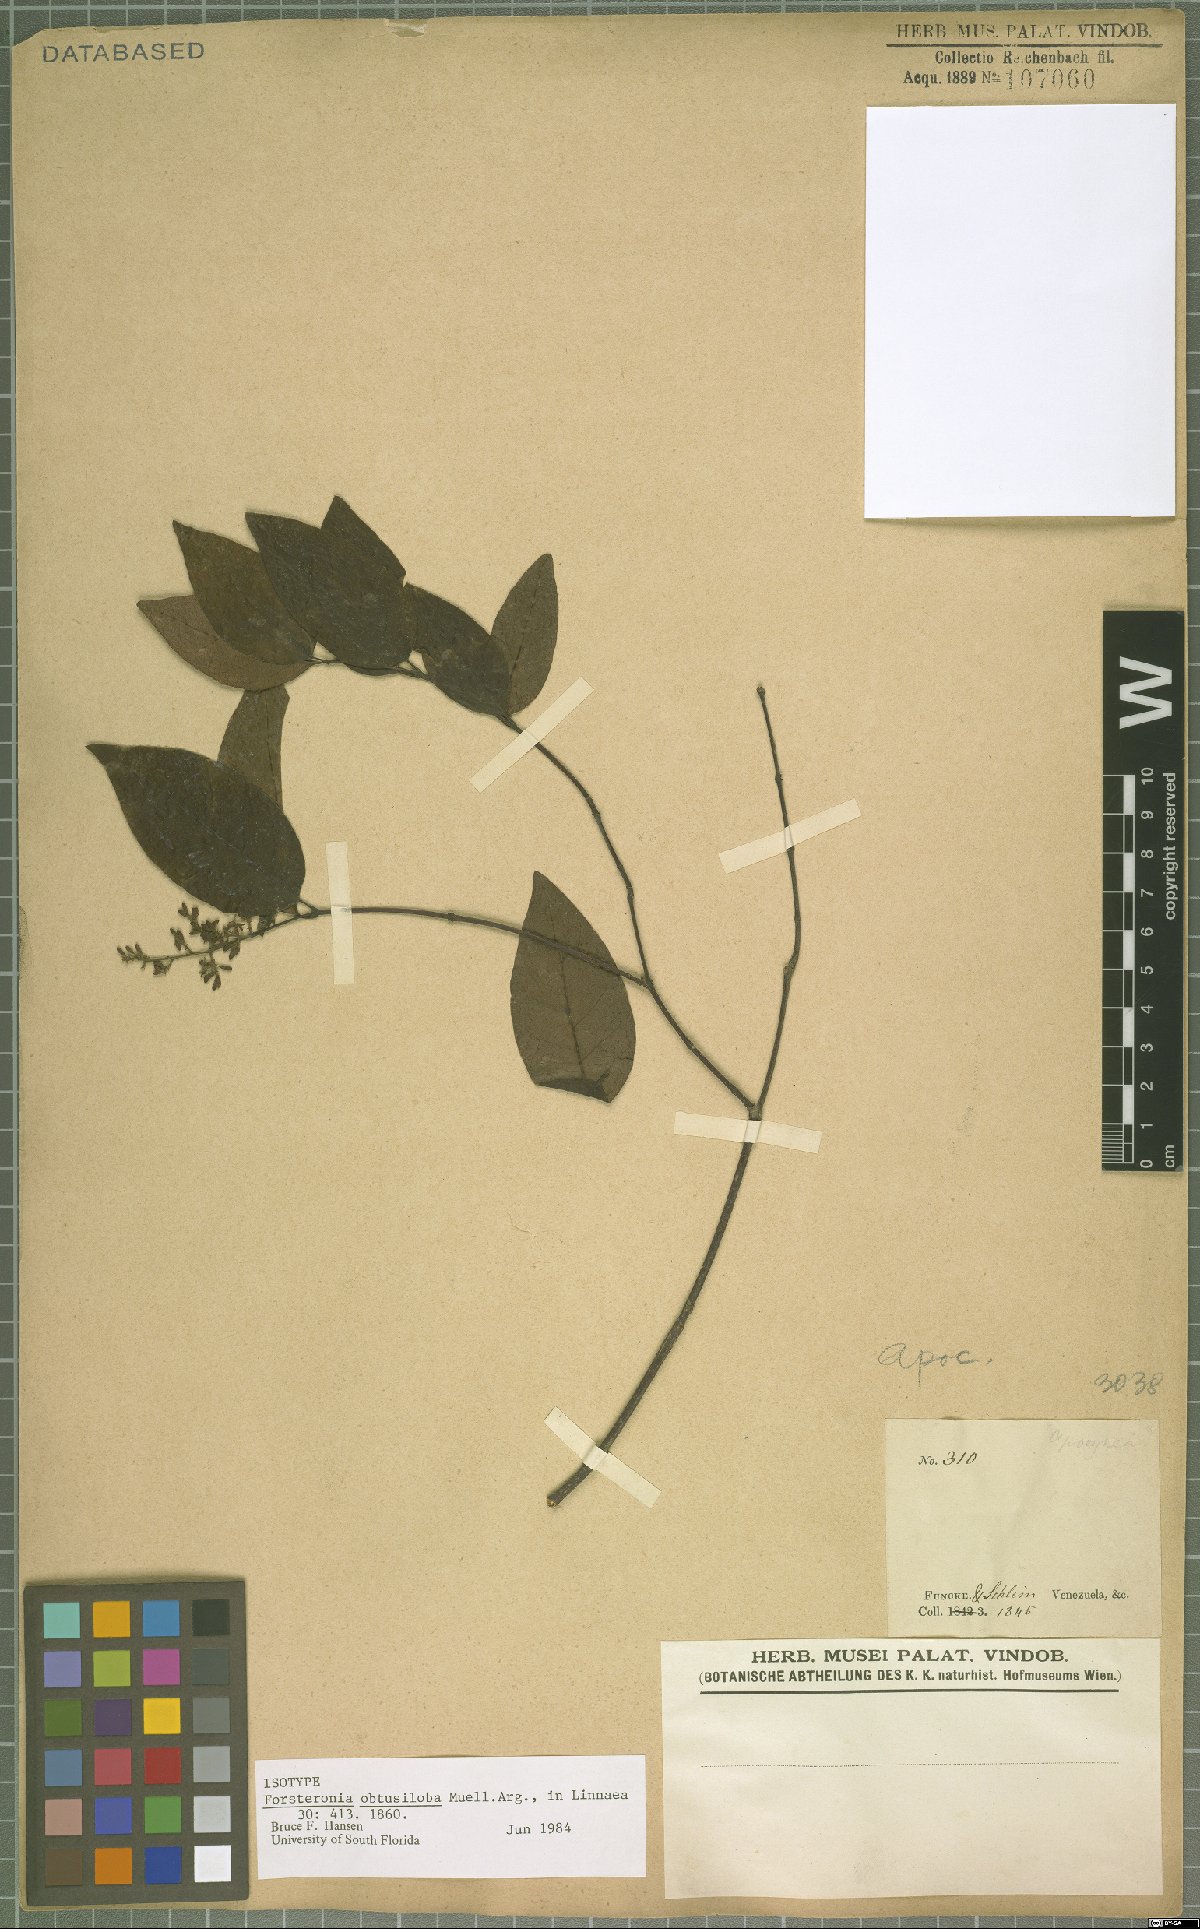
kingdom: Plantae
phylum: Tracheophyta
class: Magnoliopsida
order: Gentianales
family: Apocynaceae
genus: Forsteronia
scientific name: Forsteronia obtusiloba
